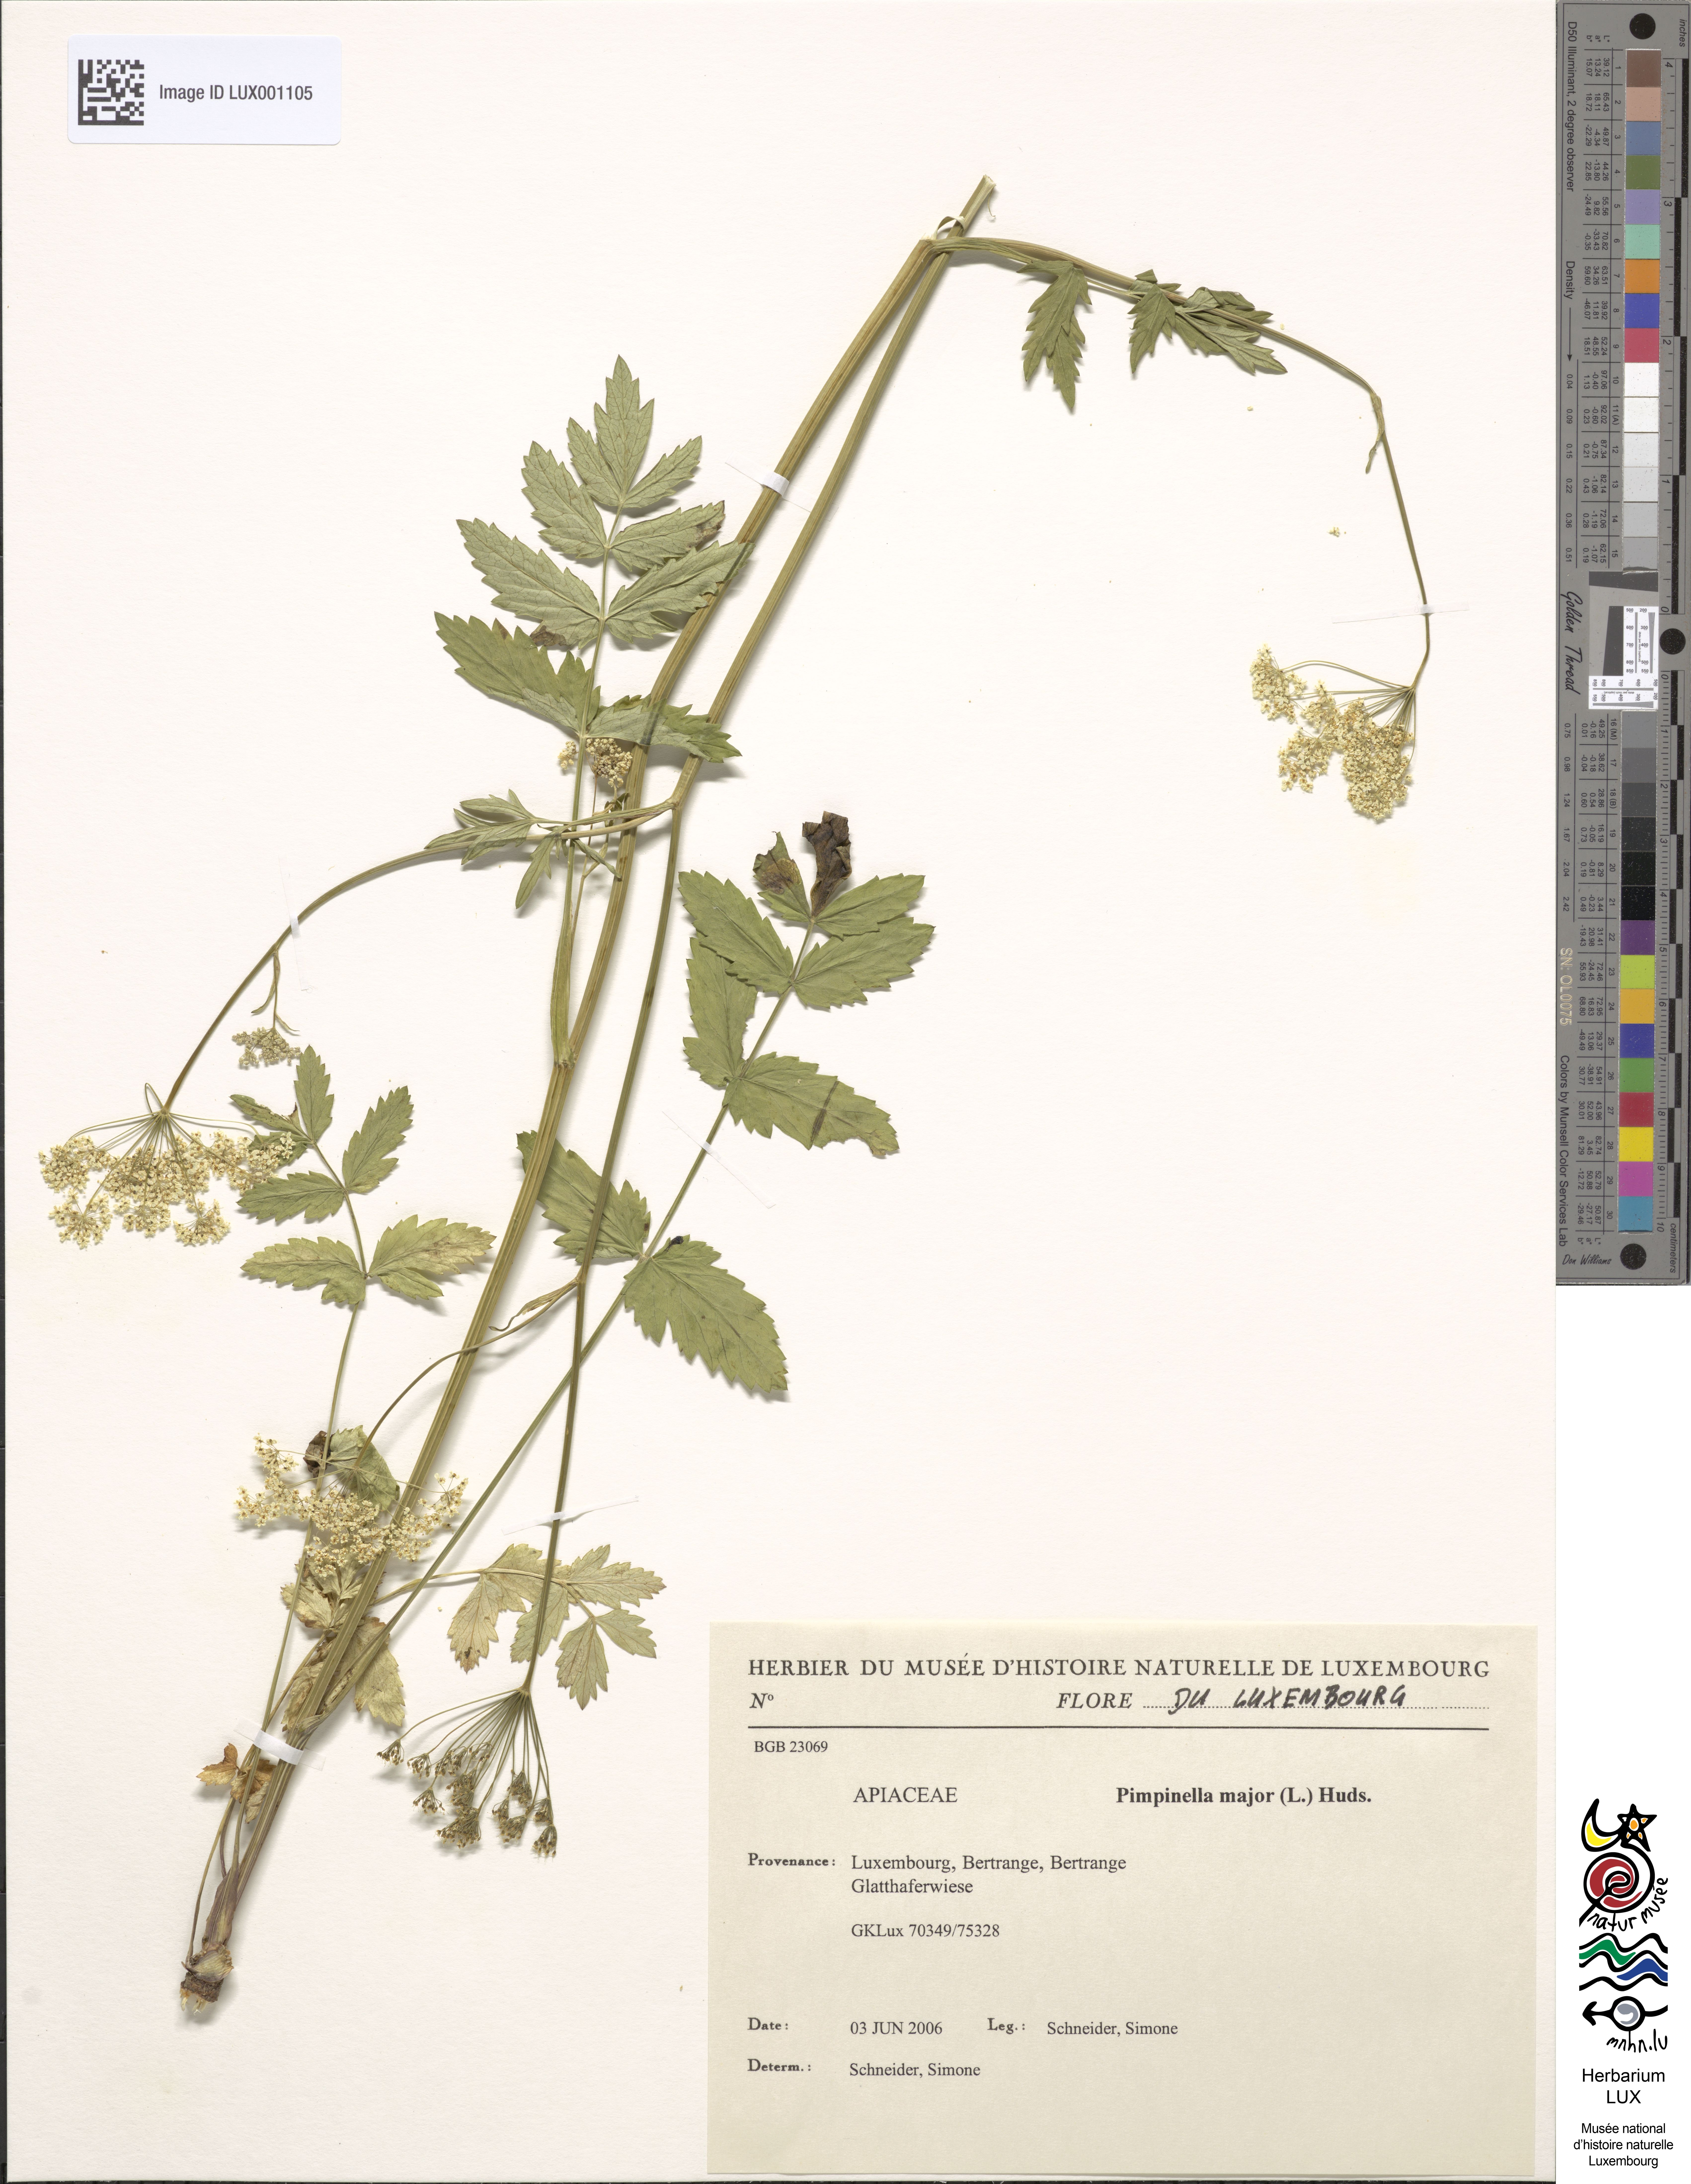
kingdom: Plantae
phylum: Tracheophyta
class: Magnoliopsida
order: Apiales
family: Apiaceae
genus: Pimpinella
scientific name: Pimpinella major
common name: Greater burnet-saxifrage
